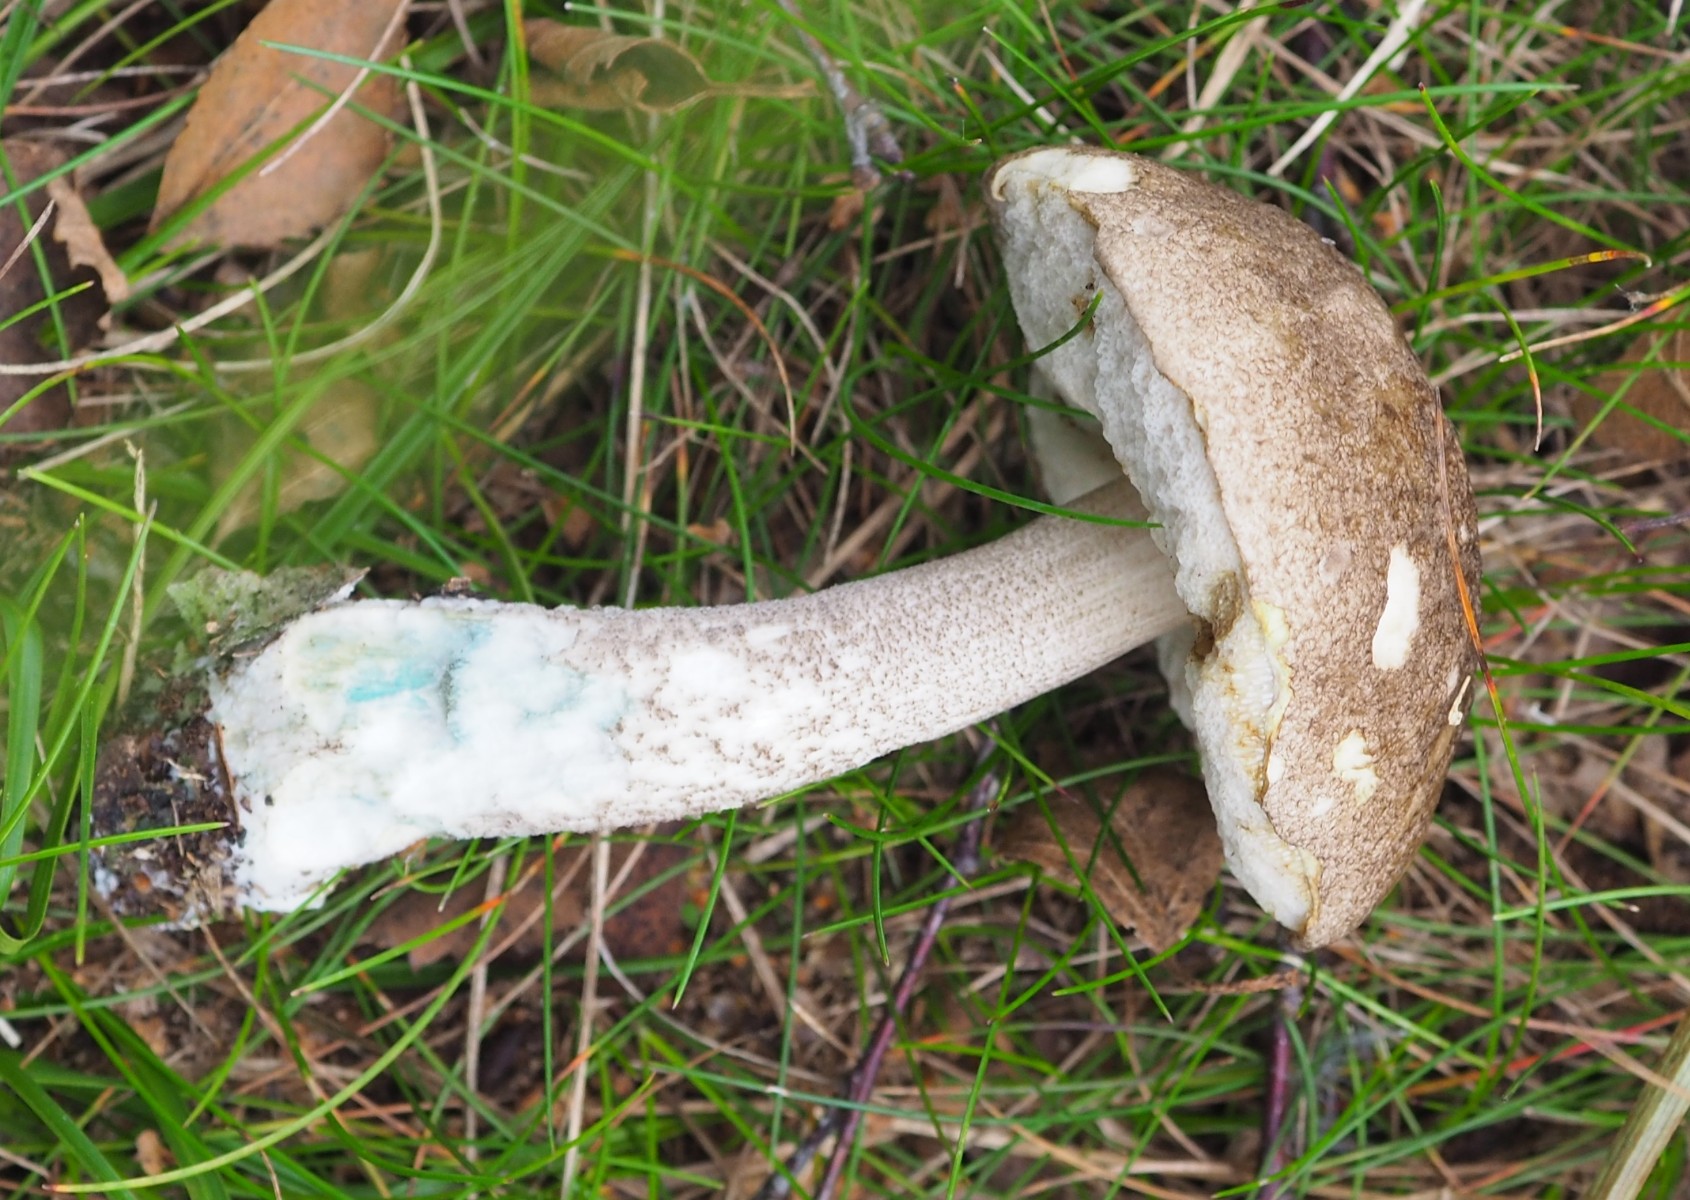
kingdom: Fungi
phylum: Basidiomycota
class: Agaricomycetes
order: Boletales
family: Boletaceae
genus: Leccinum
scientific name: Leccinum variicolor
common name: flammet skælrørhat
